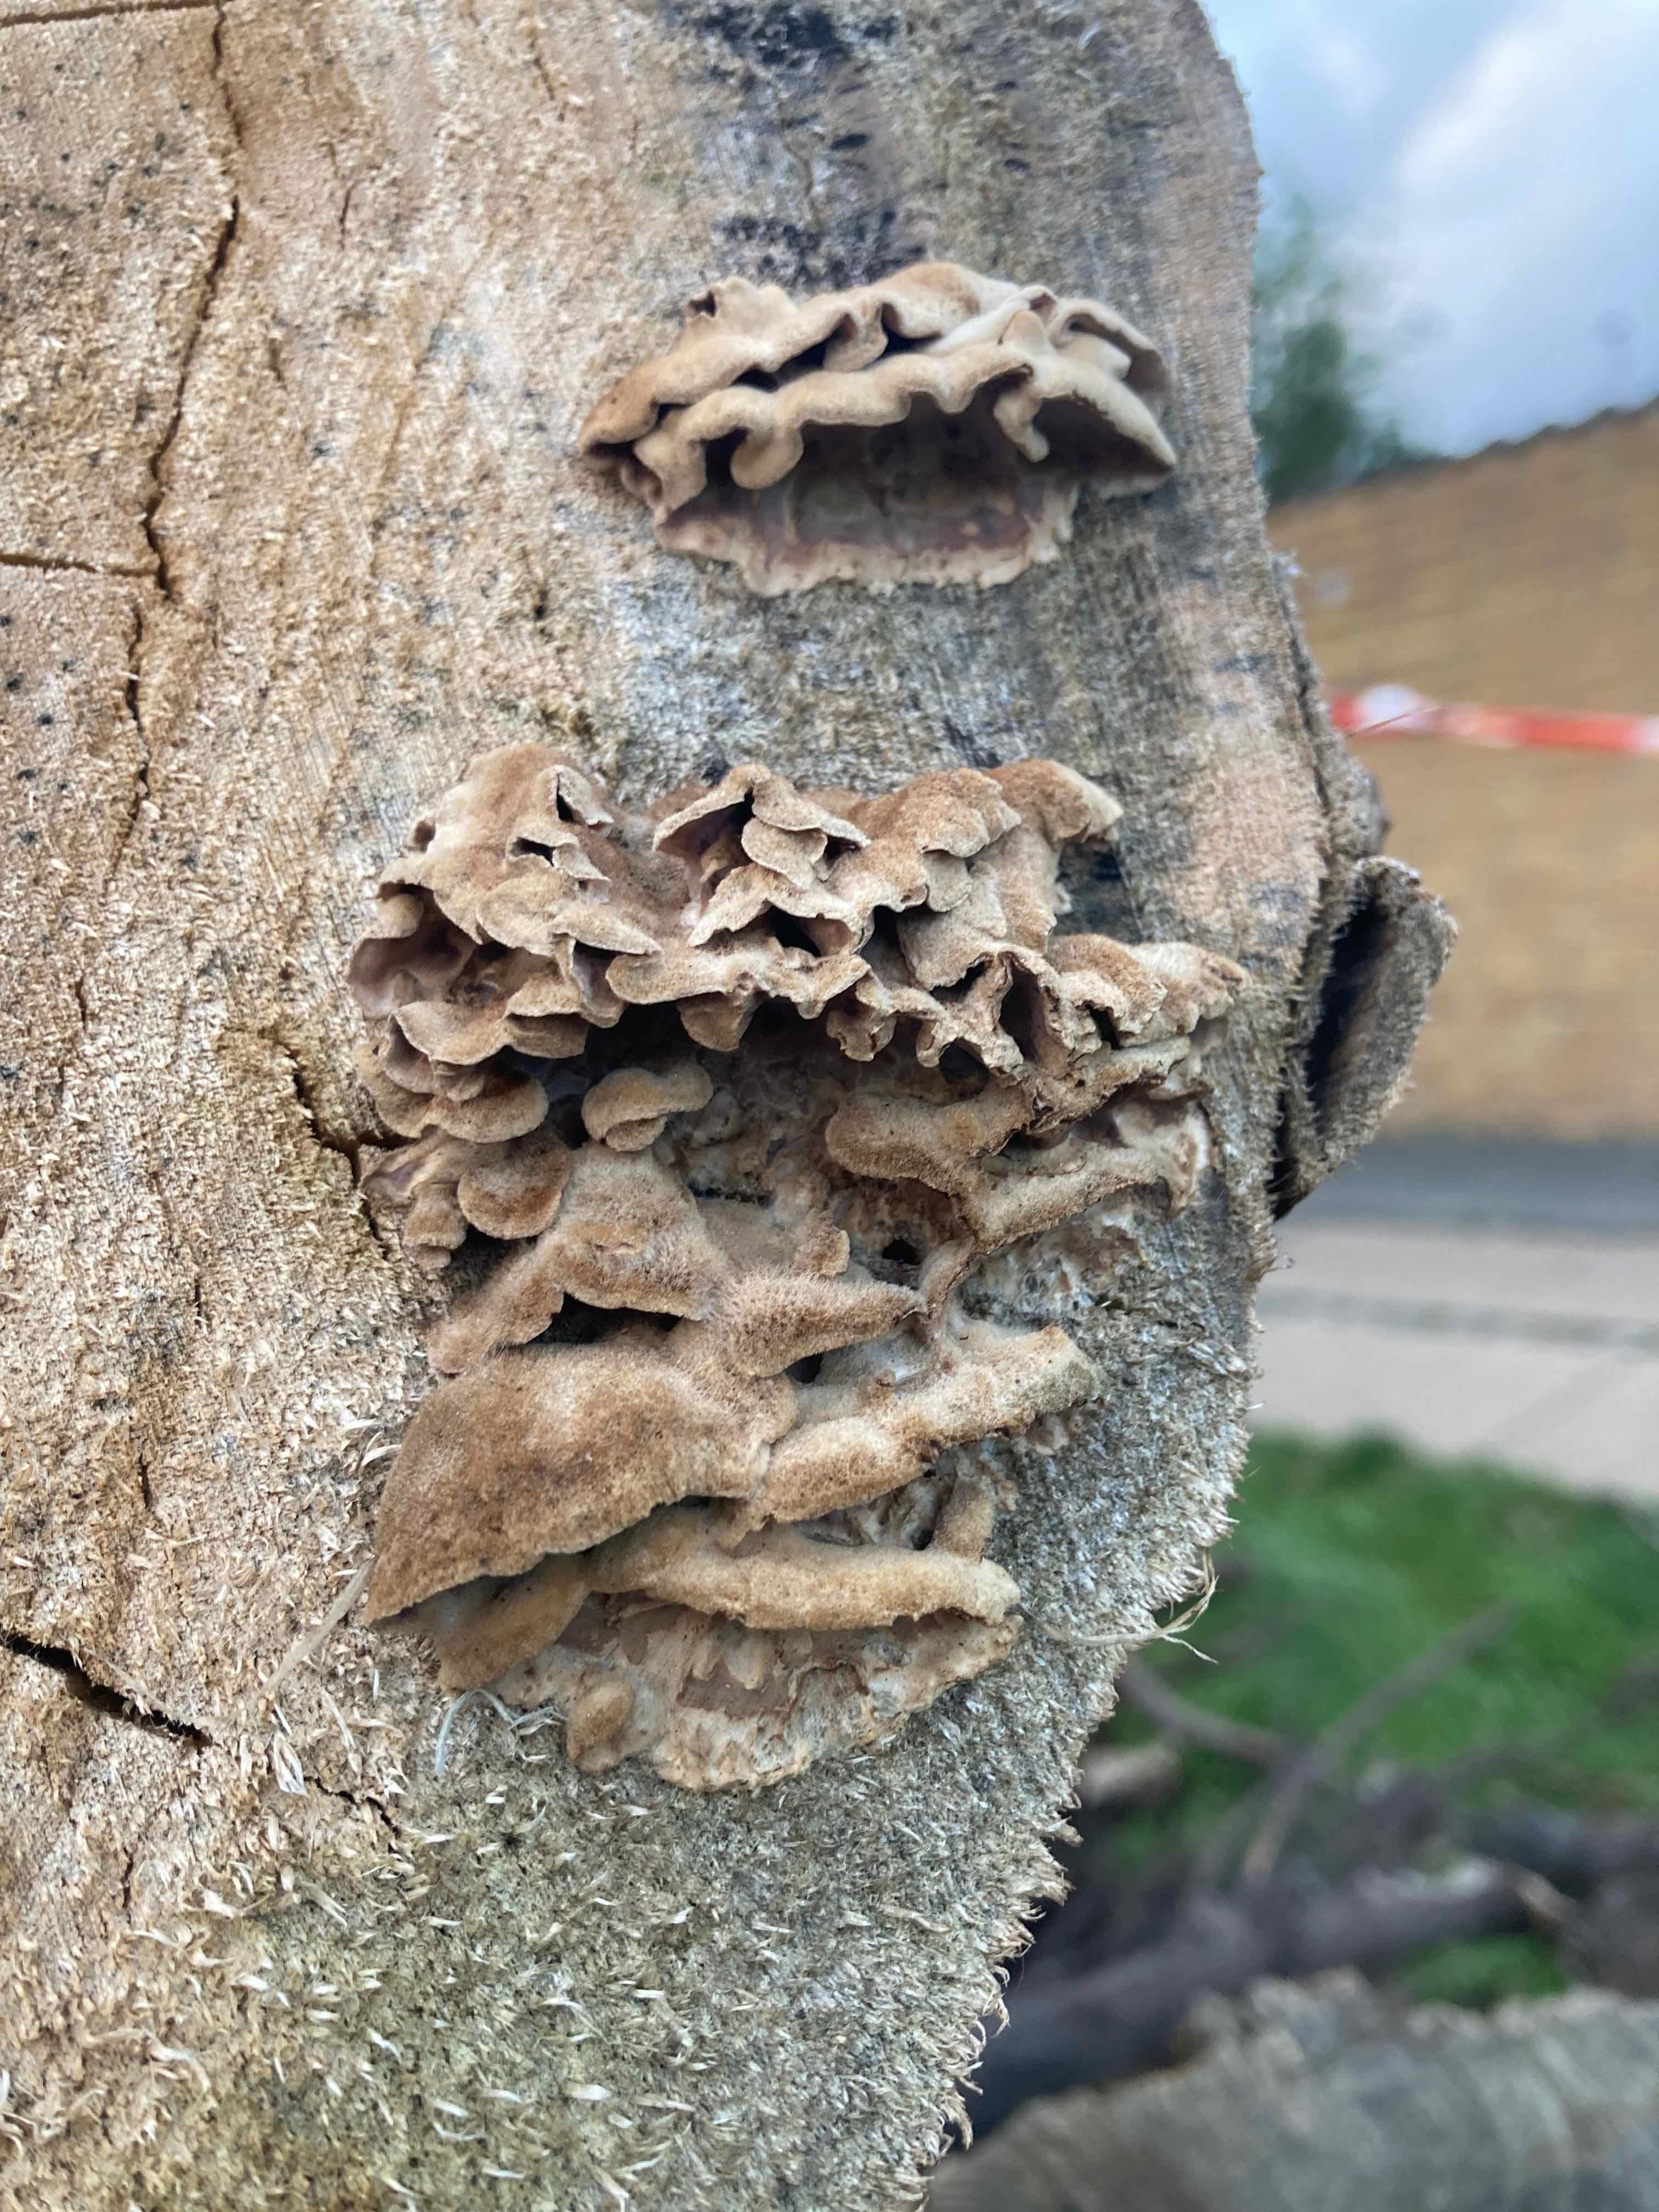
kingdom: Fungi
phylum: Basidiomycota
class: Agaricomycetes
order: Agaricales
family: Cyphellaceae
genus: Chondrostereum
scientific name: Chondrostereum purpureum
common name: purpurlædersvamp
